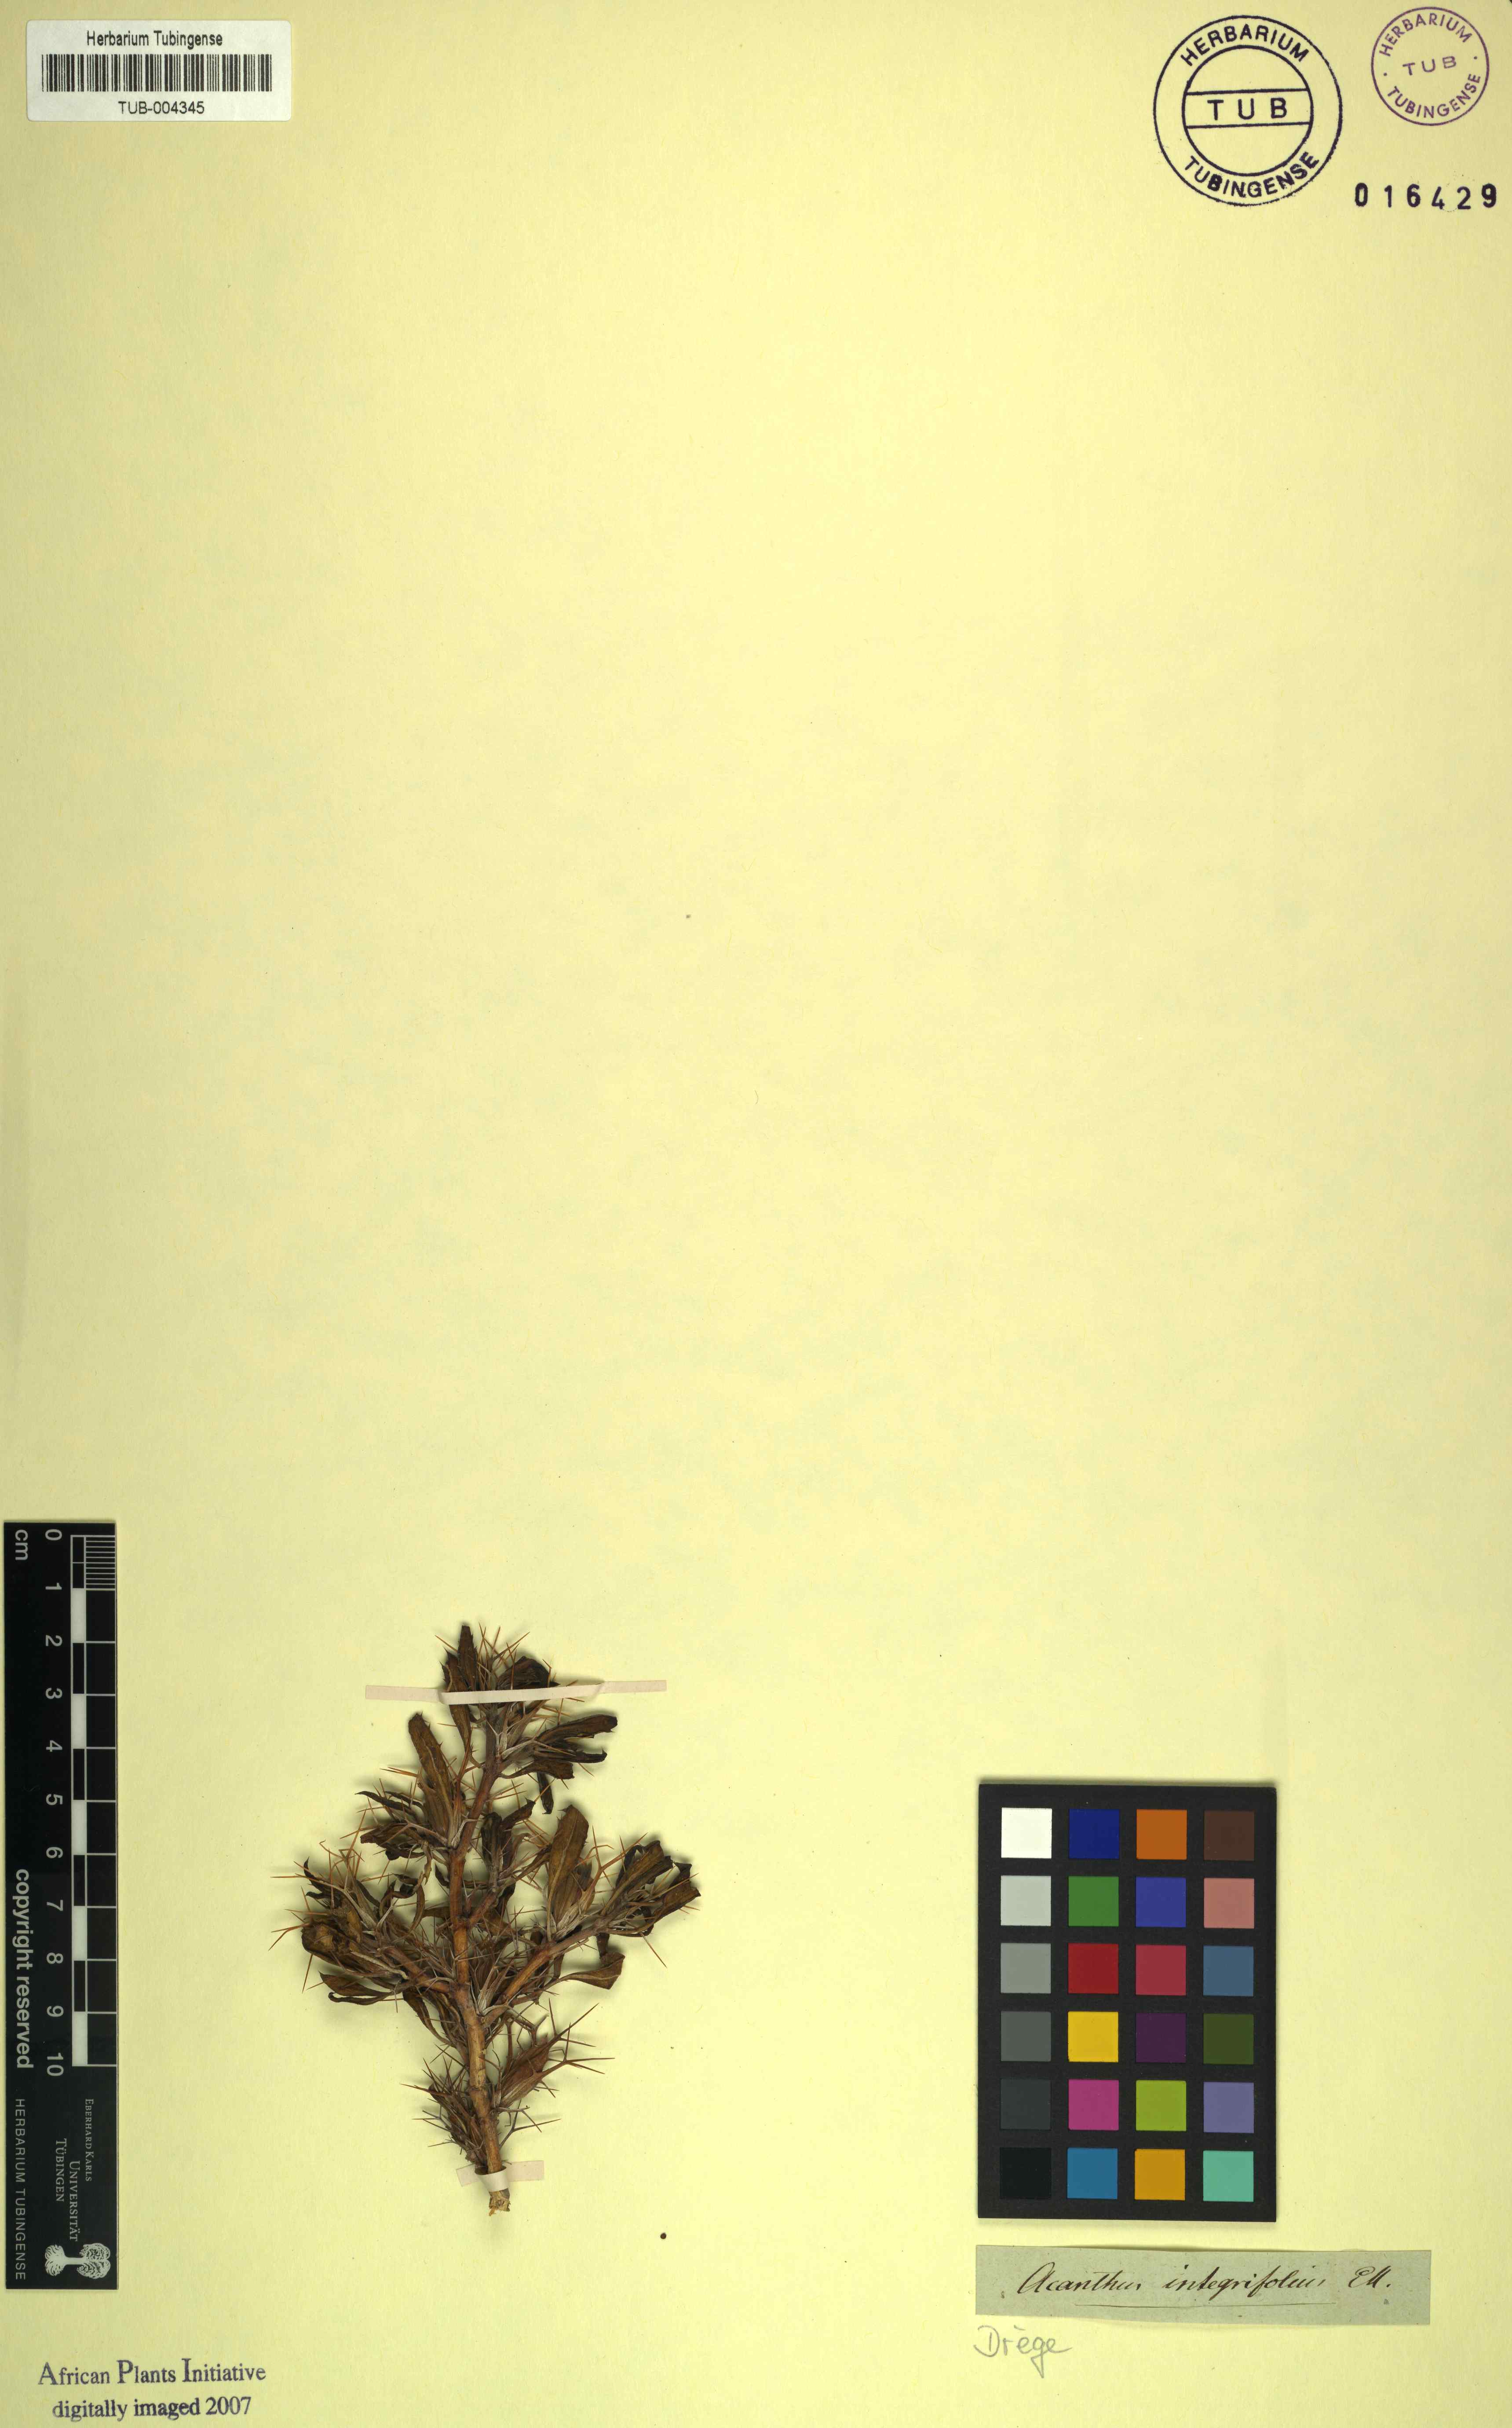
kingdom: Plantae
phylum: Tracheophyta
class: Magnoliopsida
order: Lamiales
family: Acanthaceae
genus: Blepharis
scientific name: Blepharis furcata
